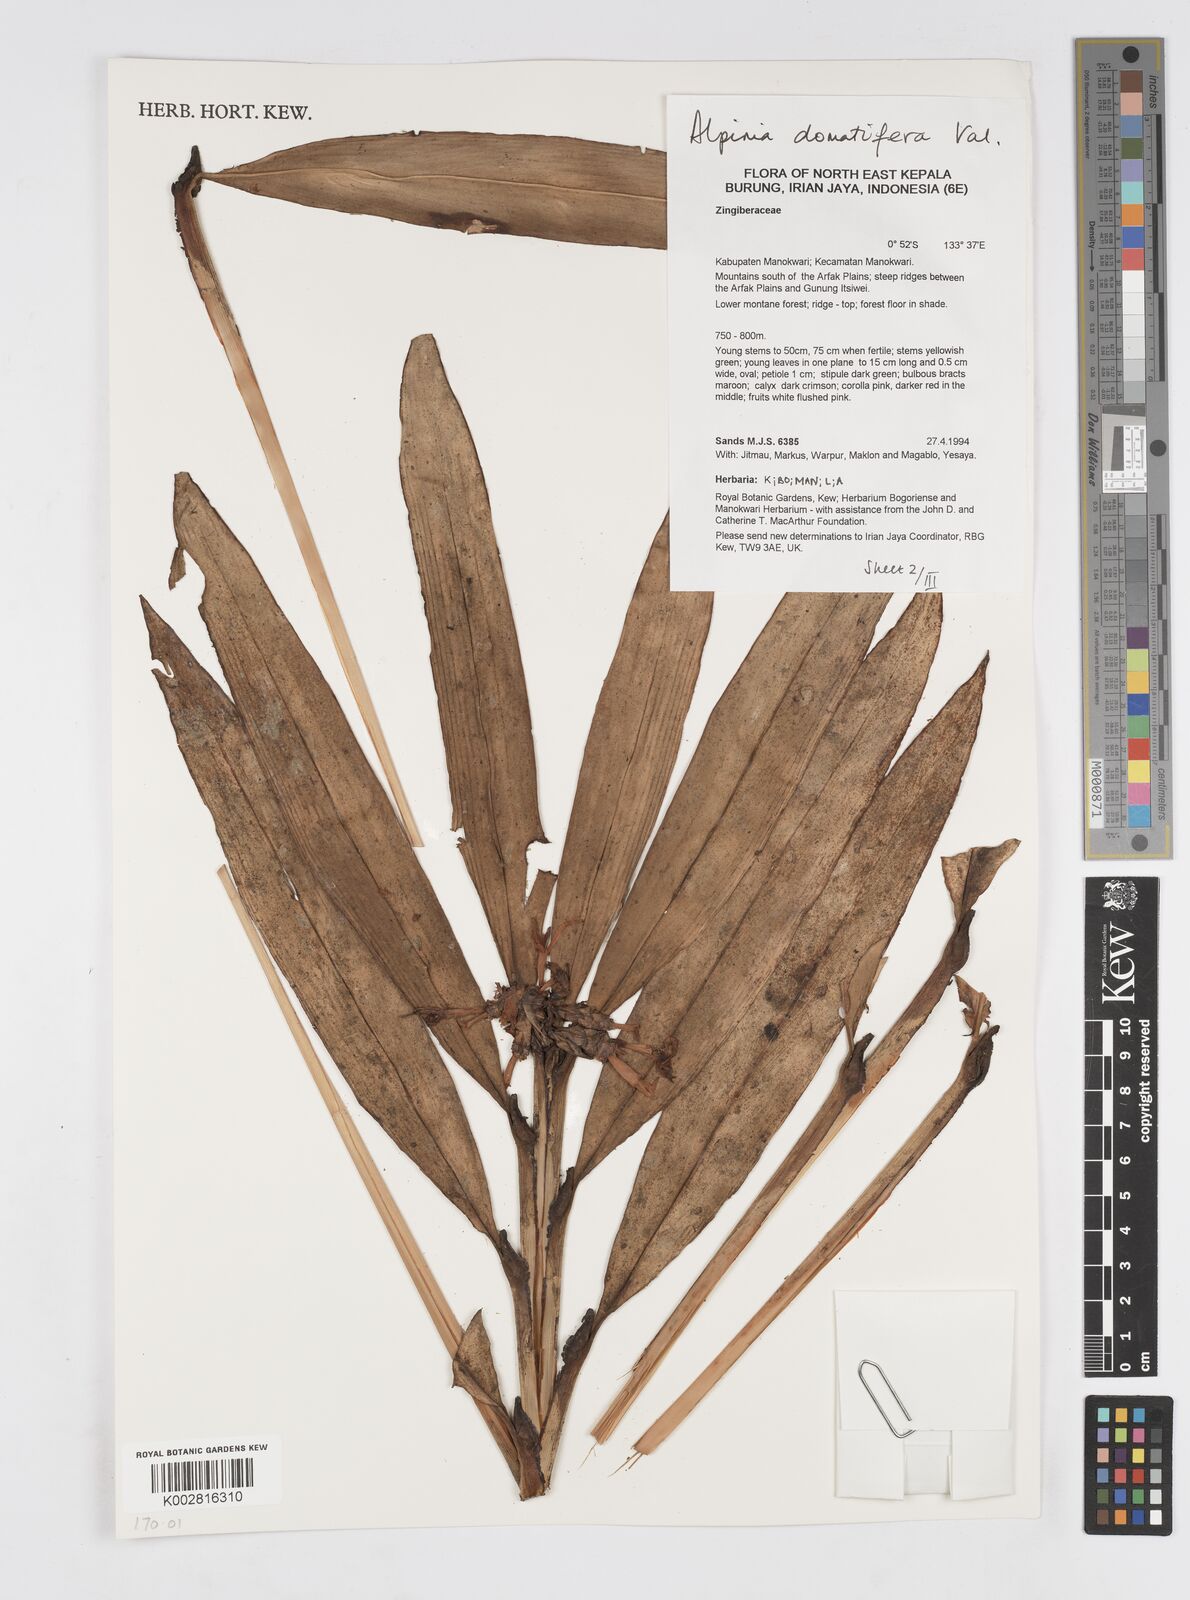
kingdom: Plantae
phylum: Tracheophyta
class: Liliopsida
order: Zingiberales
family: Zingiberaceae
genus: Alpinia
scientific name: Alpinia domatifera
